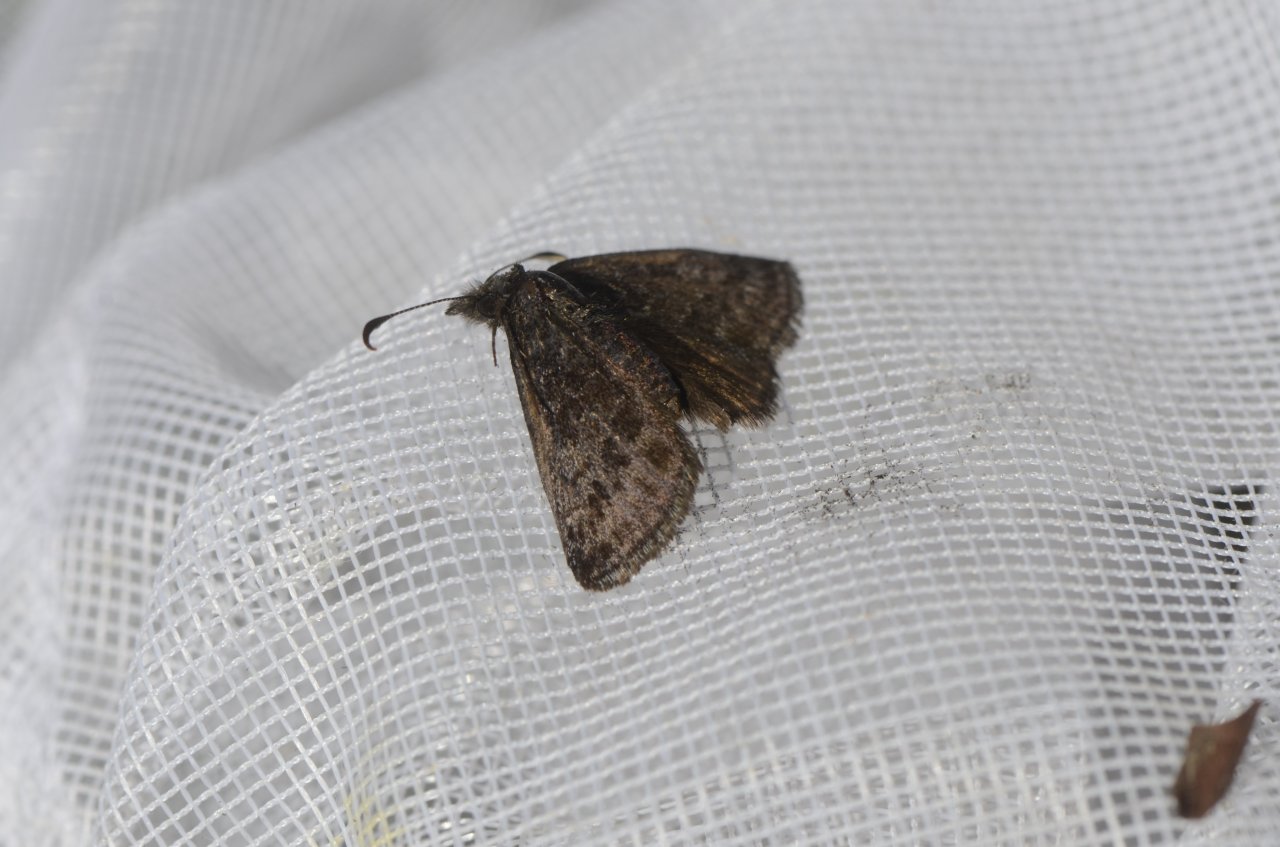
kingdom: Animalia
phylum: Arthropoda
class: Insecta
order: Lepidoptera
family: Hesperiidae
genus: Erynnis
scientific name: Erynnis icelus
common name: Dreamy Duskywing
